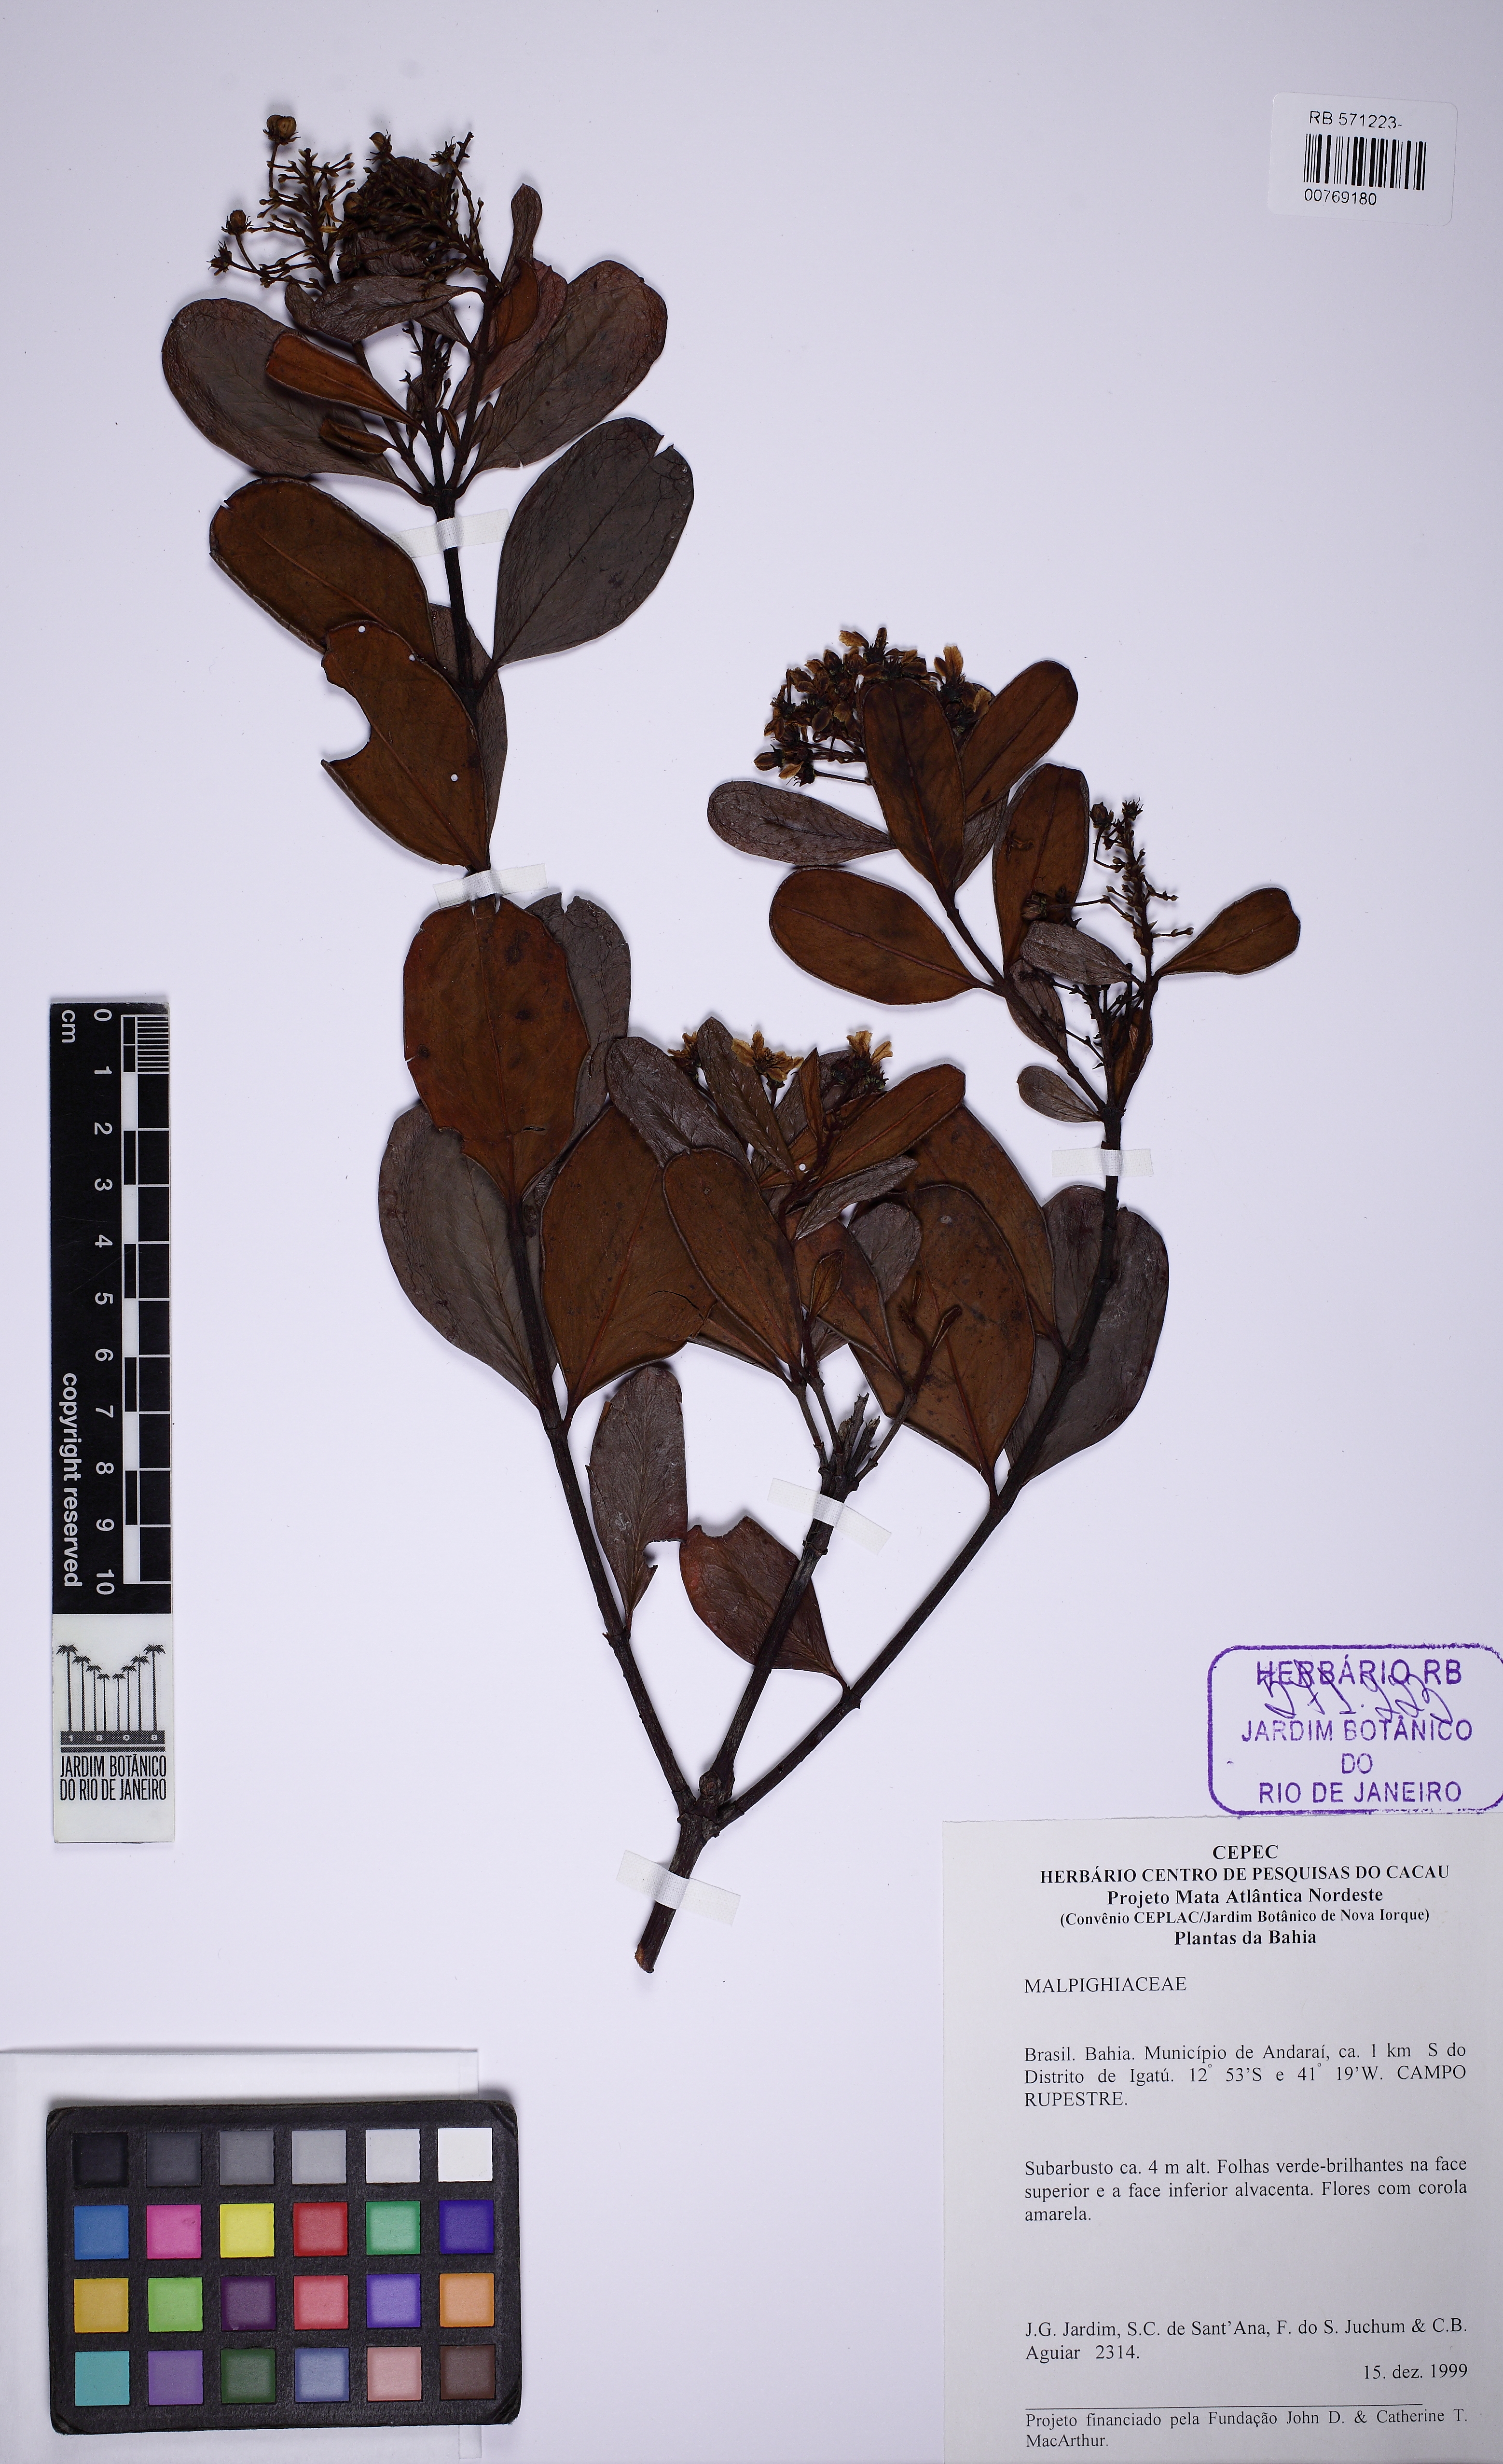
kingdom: Plantae
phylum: Tracheophyta
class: Magnoliopsida
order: Malpighiales
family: Malpighiaceae
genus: Verrucularina
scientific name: Verrucularina glaucophylla
